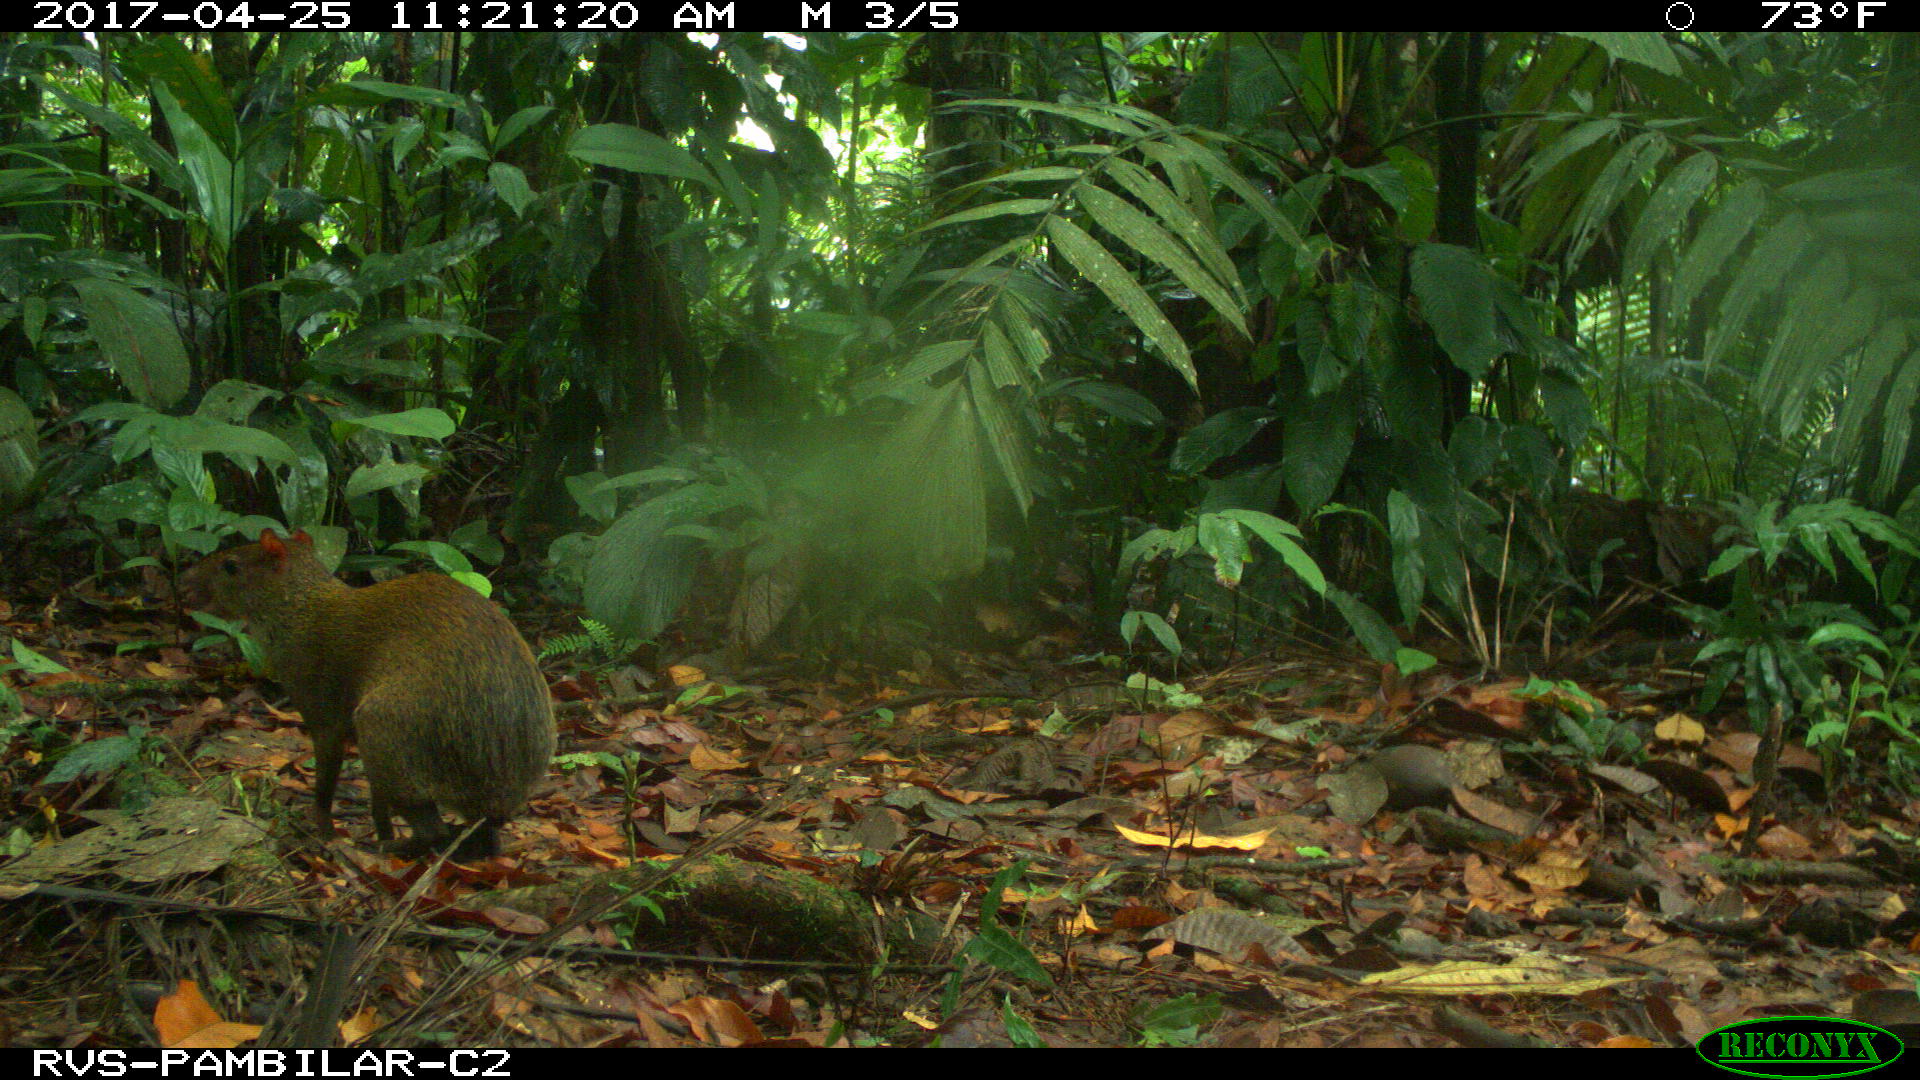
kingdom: Animalia
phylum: Chordata
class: Mammalia
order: Rodentia
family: Dasyproctidae
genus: Dasyprocta
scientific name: Dasyprocta punctata
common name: Central american agouti
